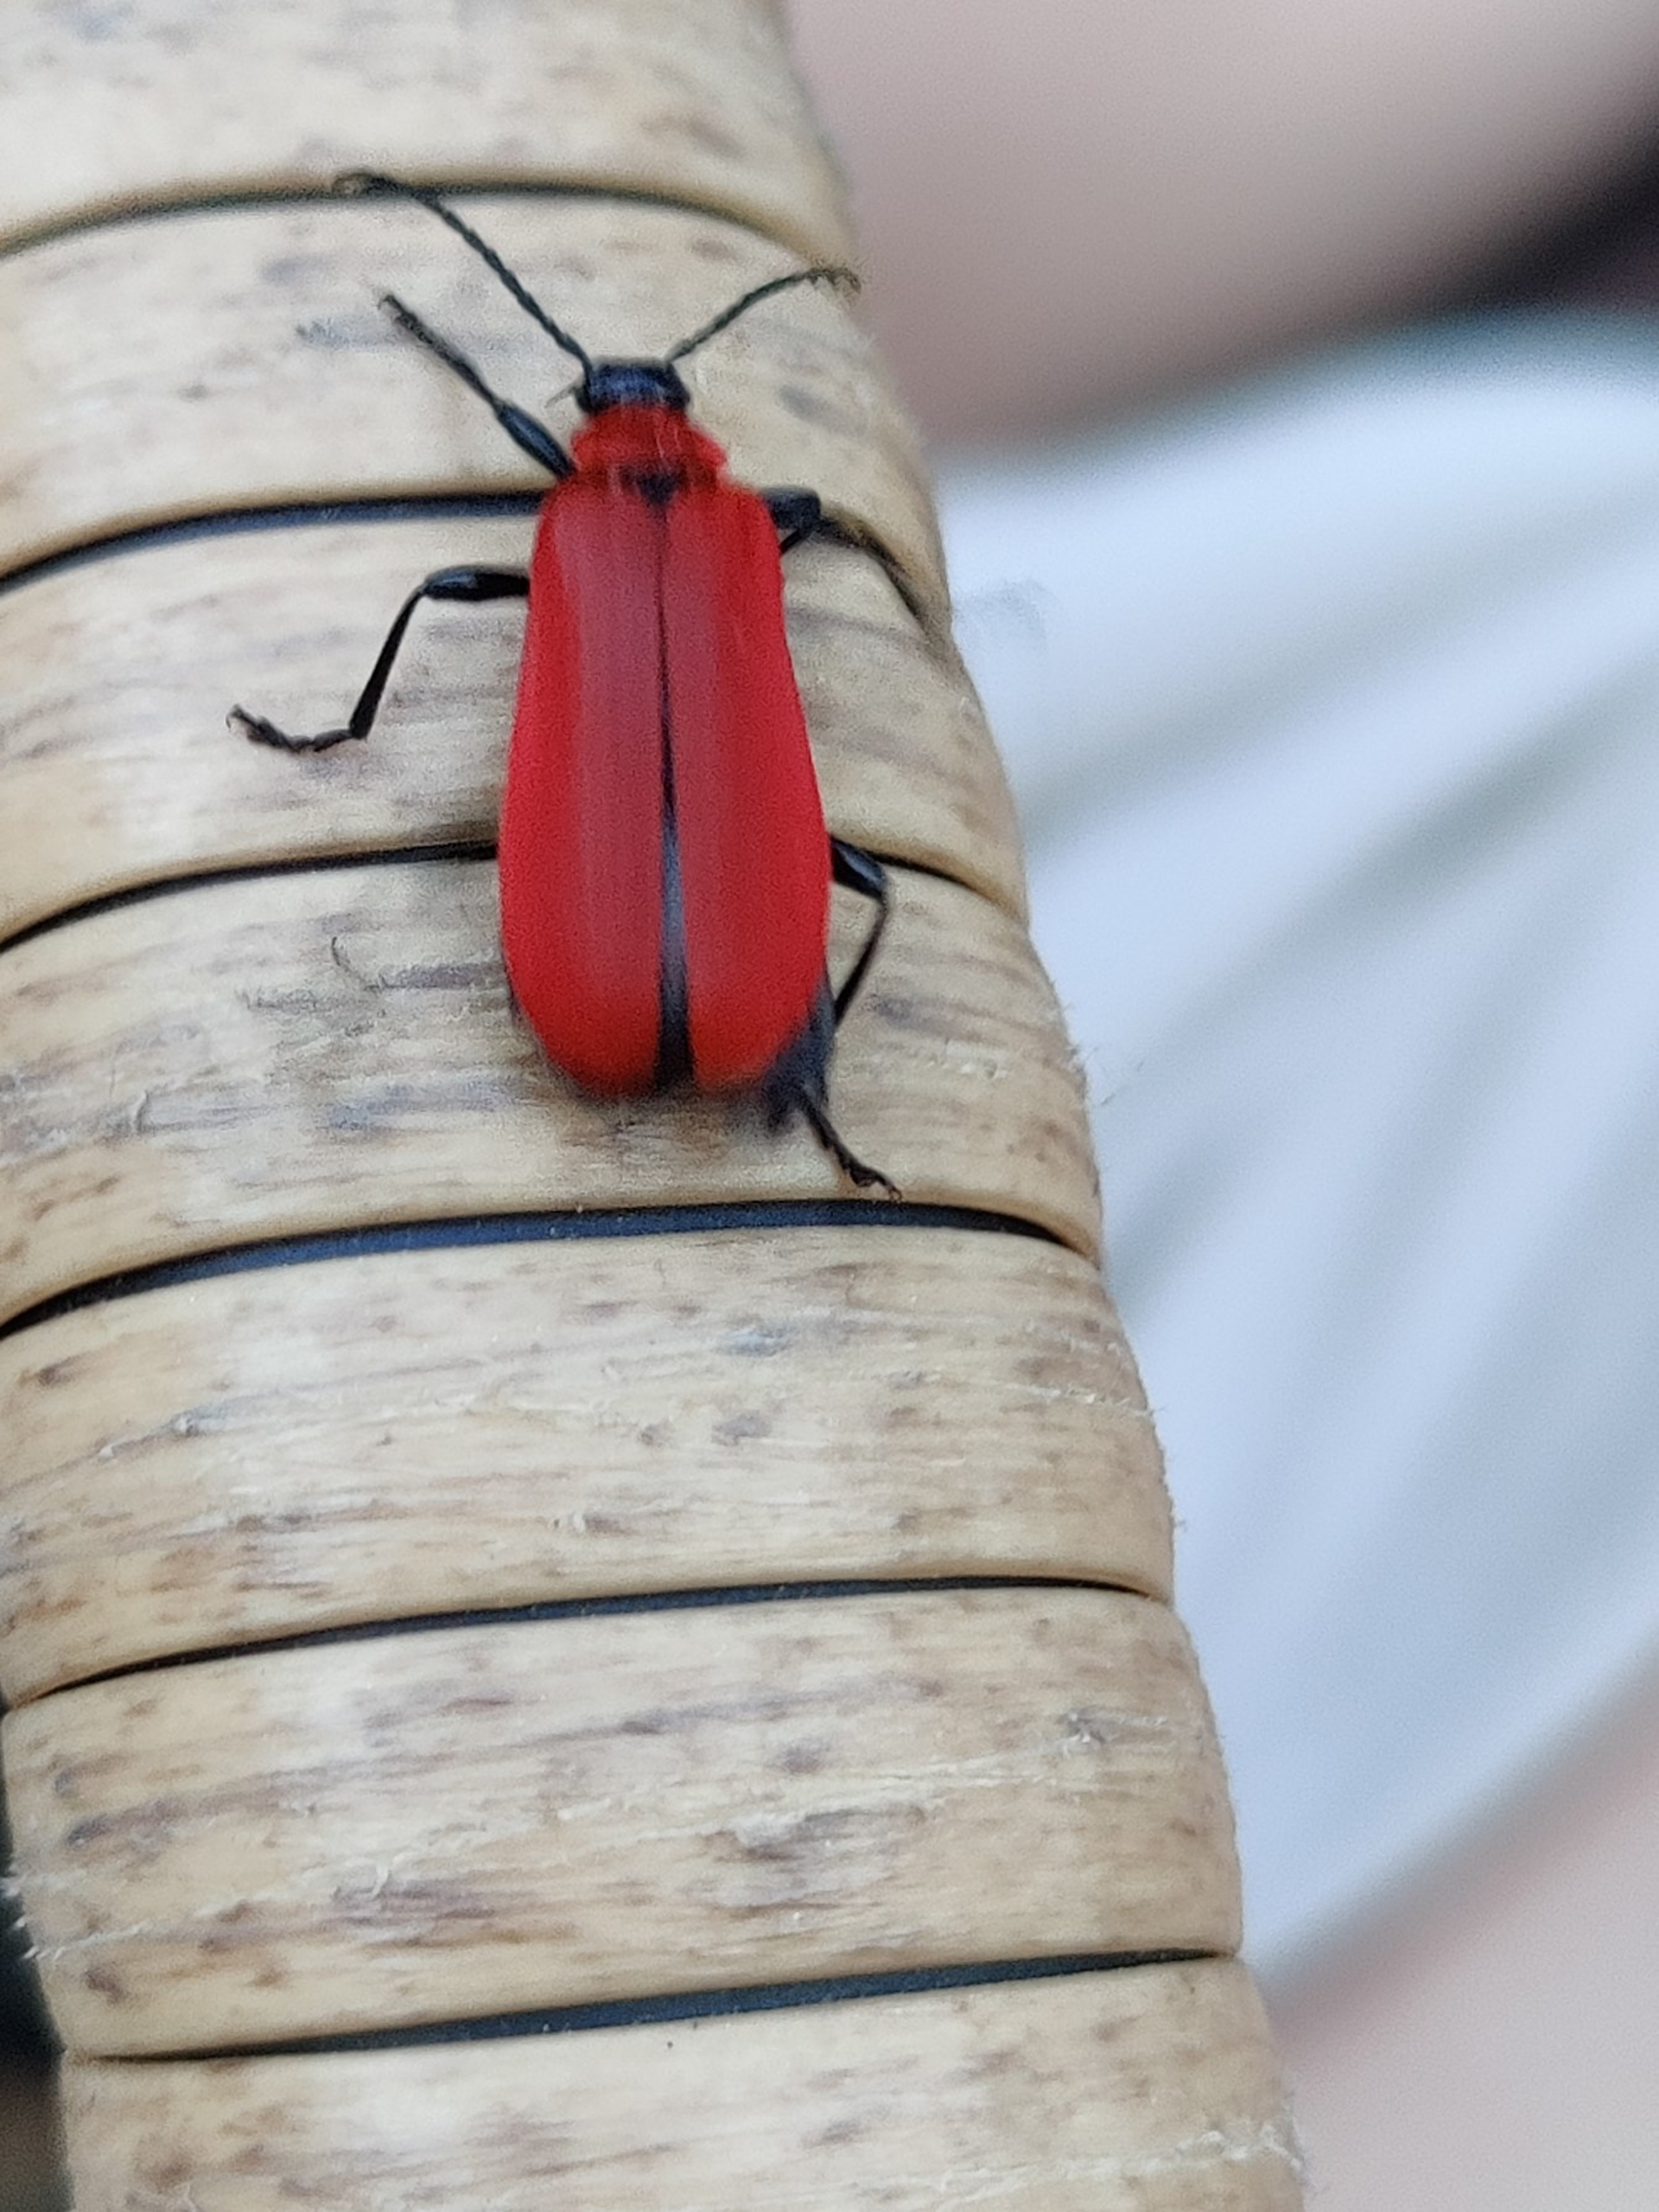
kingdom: Animalia
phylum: Arthropoda
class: Insecta
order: Coleoptera
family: Pyrochroidae
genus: Pyrochroa
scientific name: Pyrochroa coccinea
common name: Sorthovedet kardinalbille
